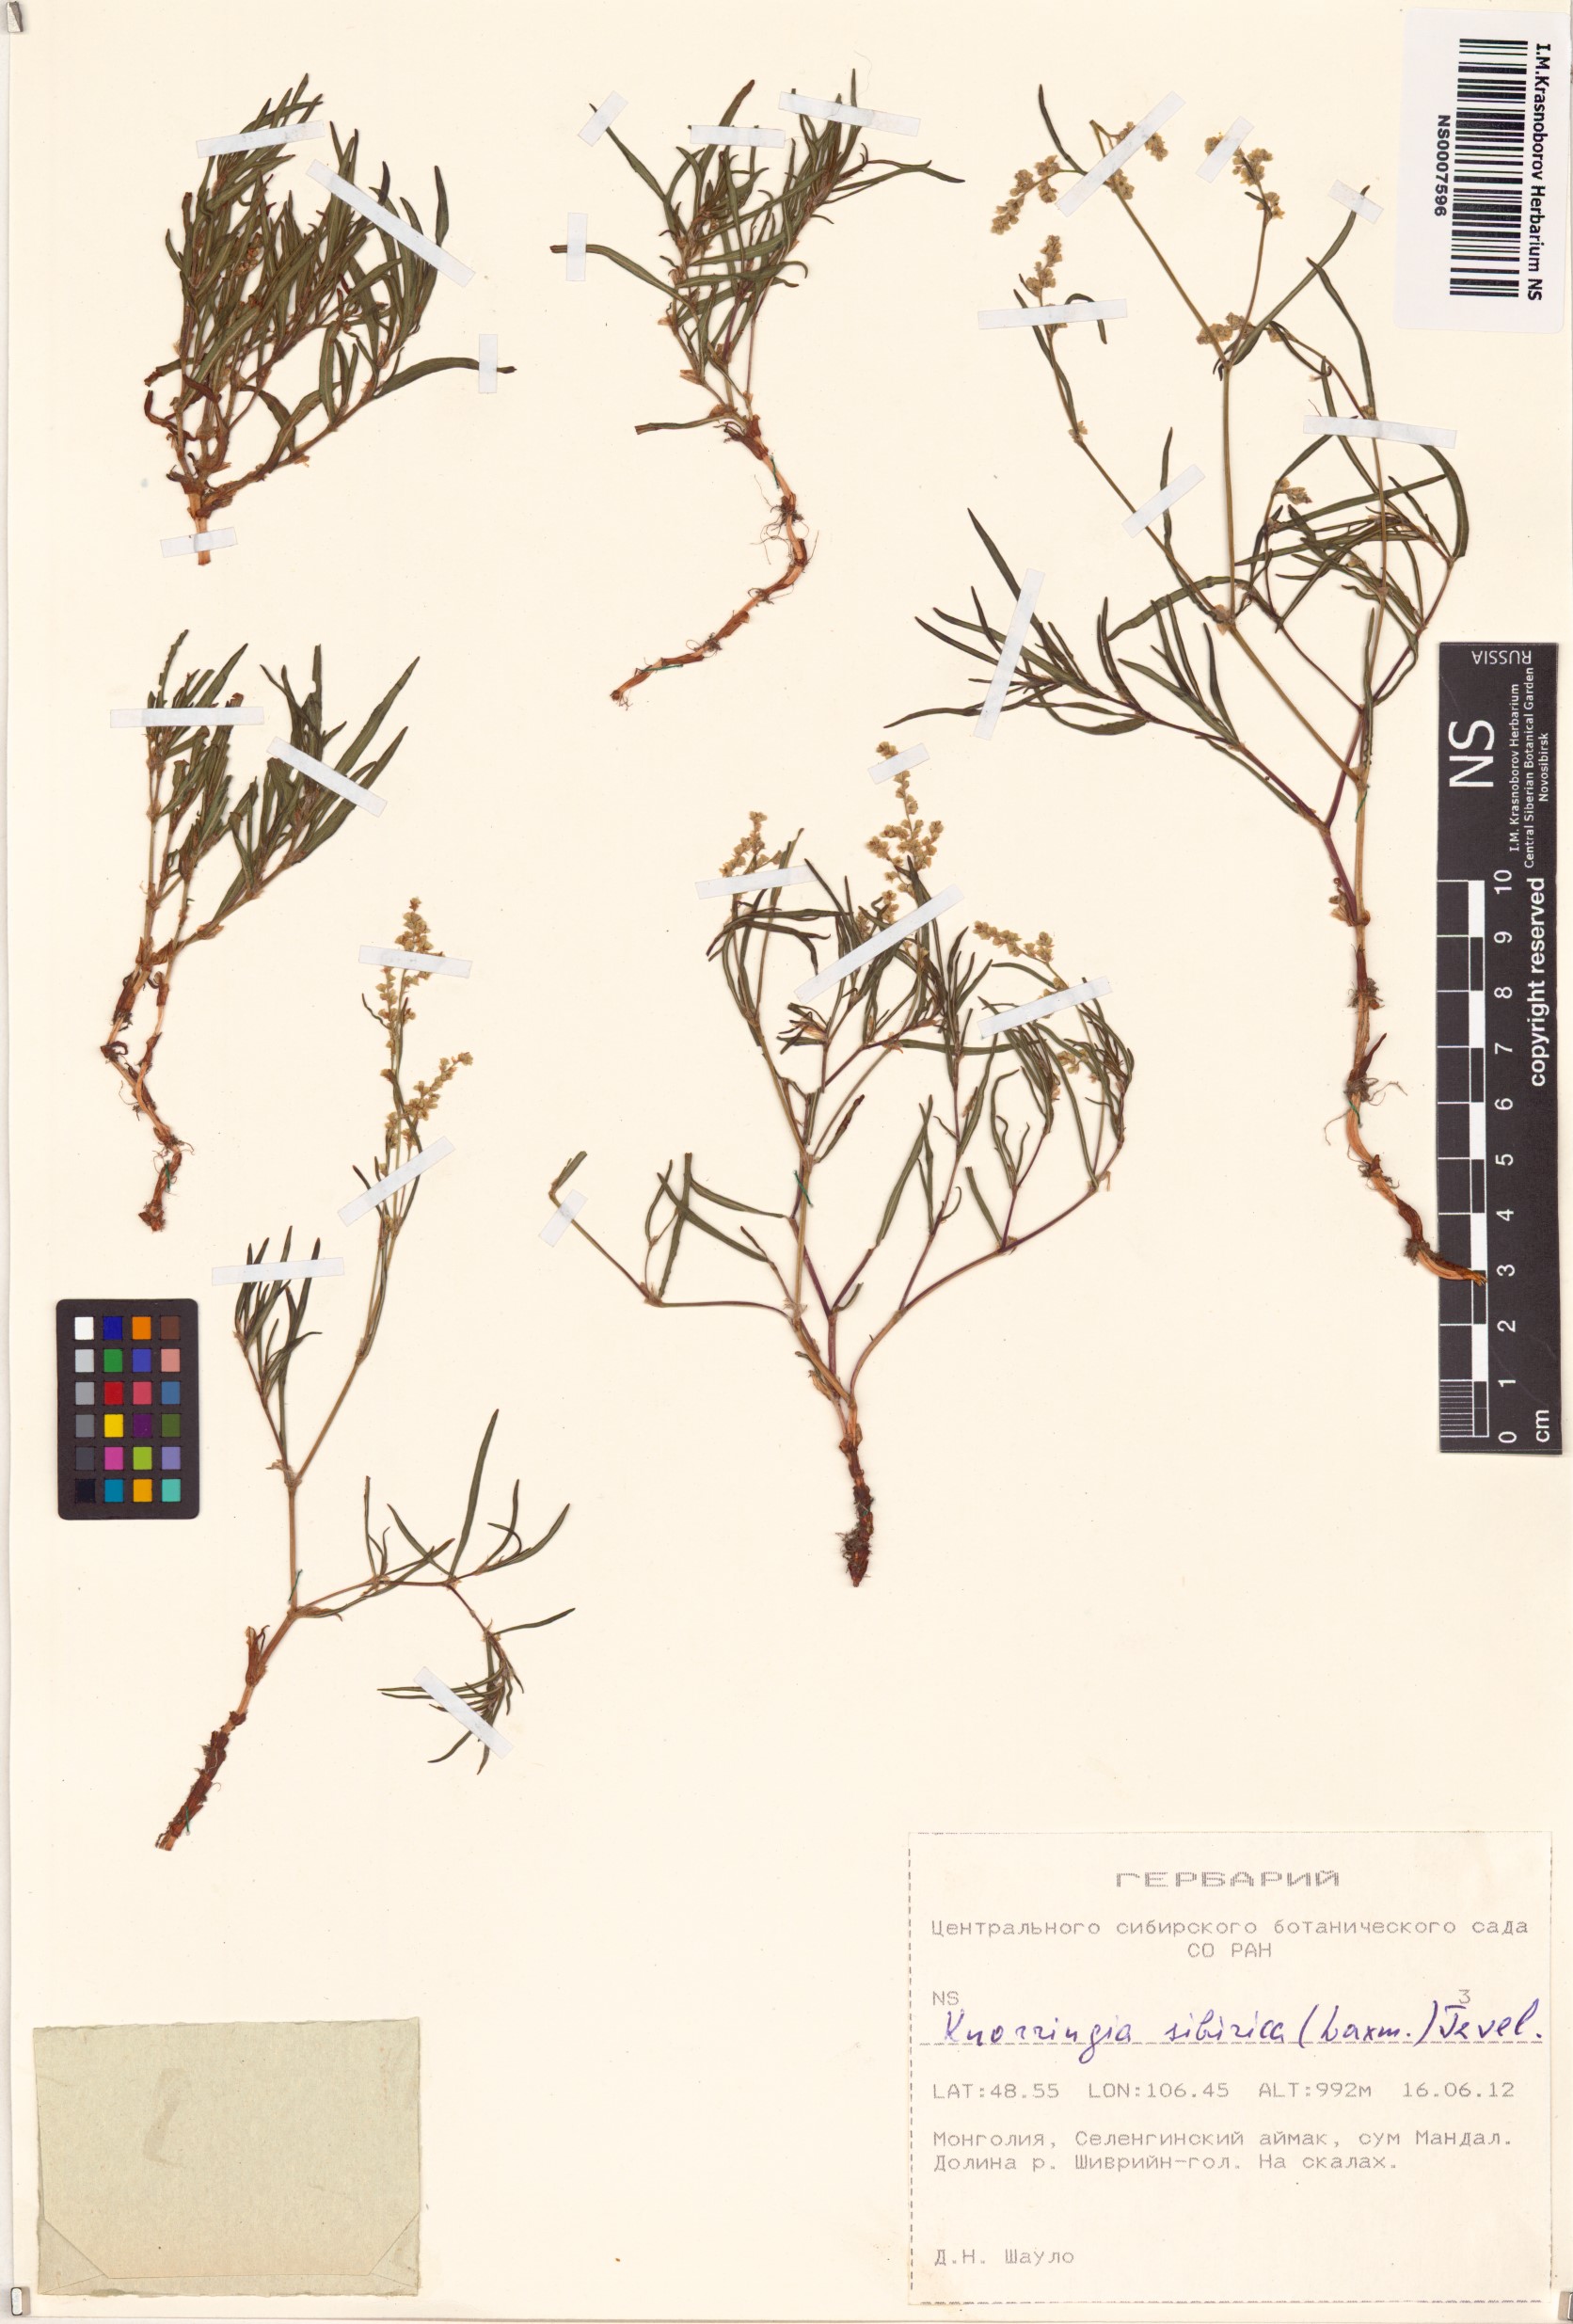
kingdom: Plantae
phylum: Tracheophyta
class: Magnoliopsida
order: Caryophyllales
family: Polygonaceae
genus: Knorringia
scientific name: Knorringia sibirica
